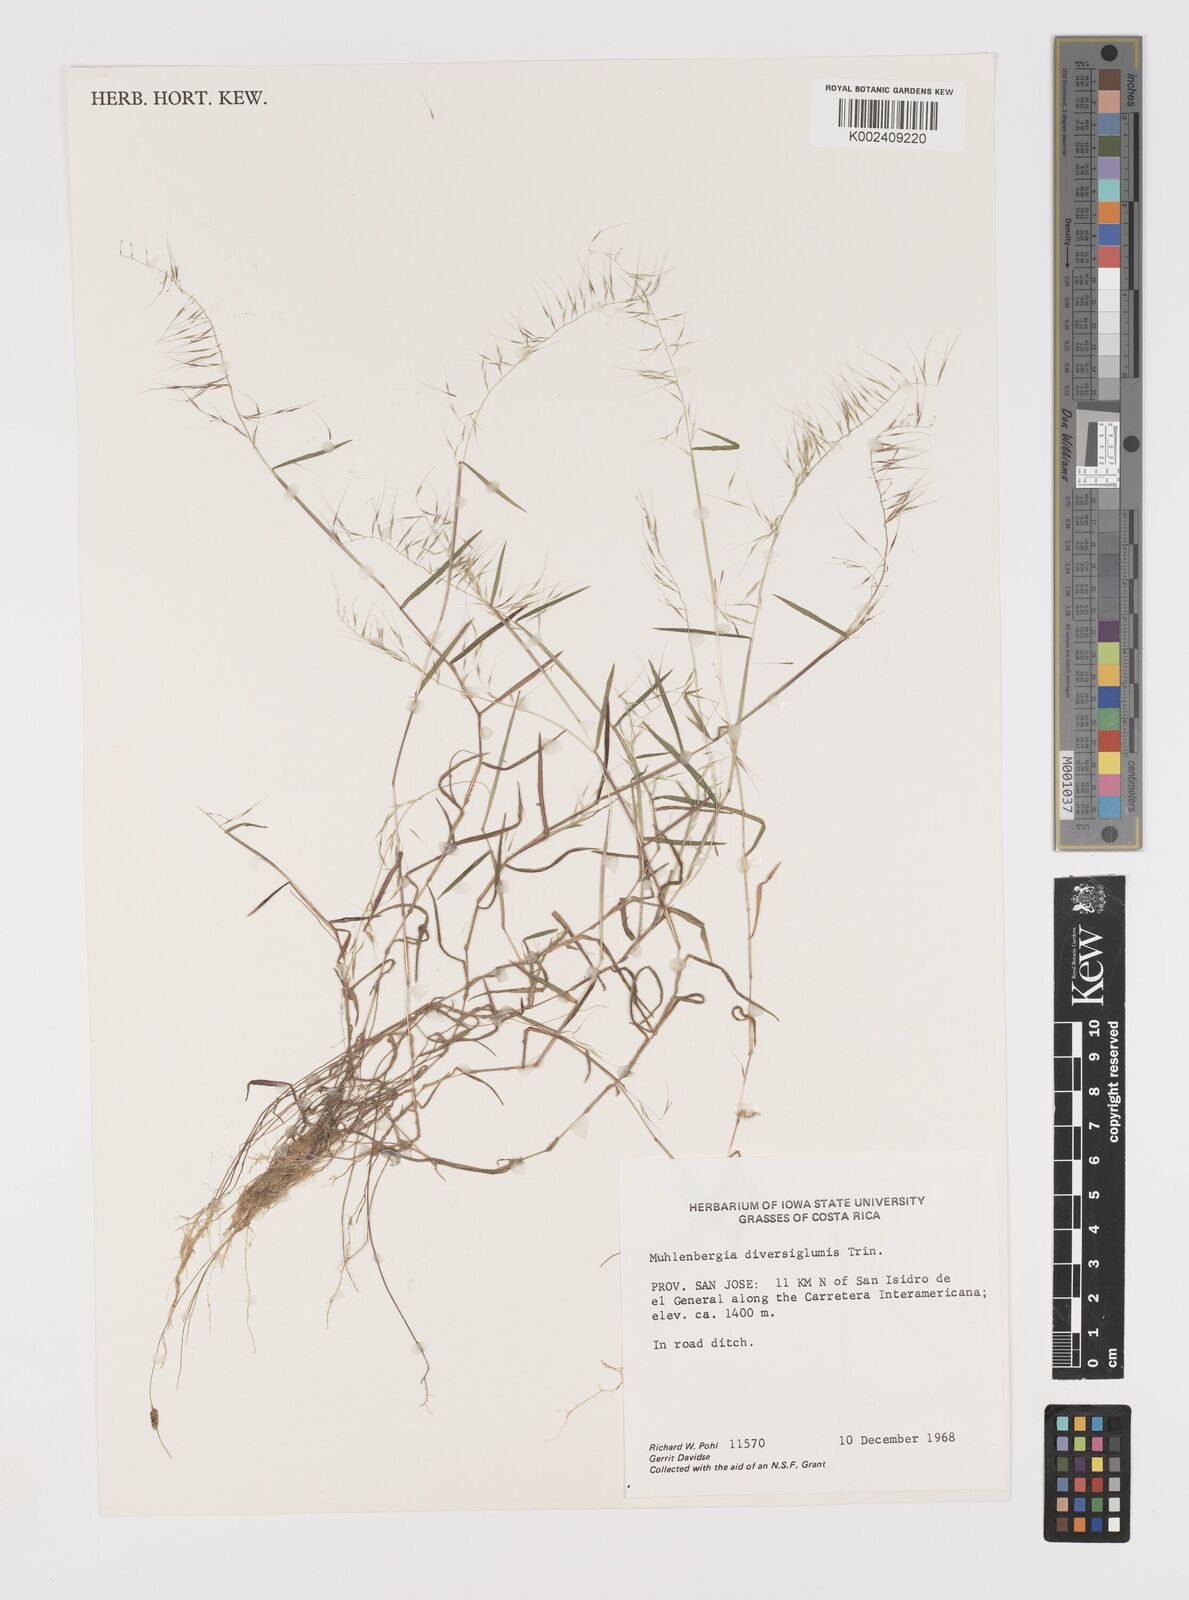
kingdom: Plantae
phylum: Tracheophyta
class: Liliopsida
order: Poales
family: Poaceae
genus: Muhlenbergia
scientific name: Muhlenbergia diversiglumis
